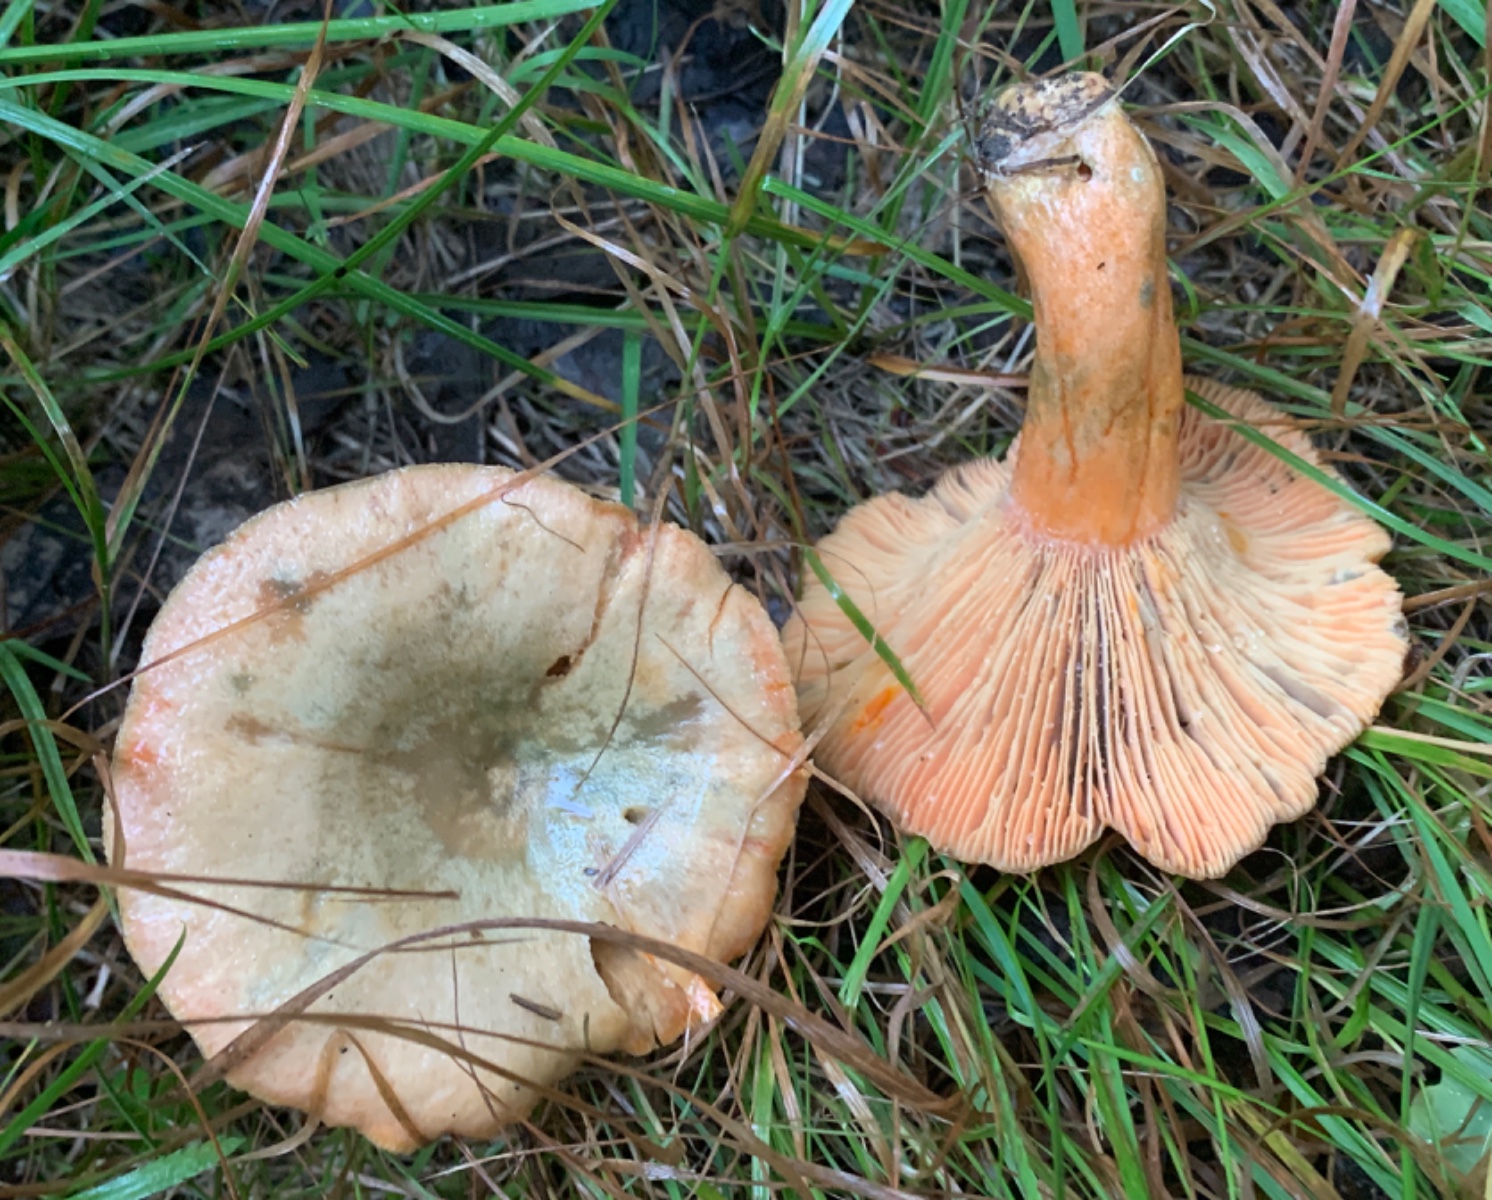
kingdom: Fungi
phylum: Basidiomycota
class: Agaricomycetes
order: Russulales
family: Russulaceae
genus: Lactarius
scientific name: Lactarius deterrimus
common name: gran-mælkehat
